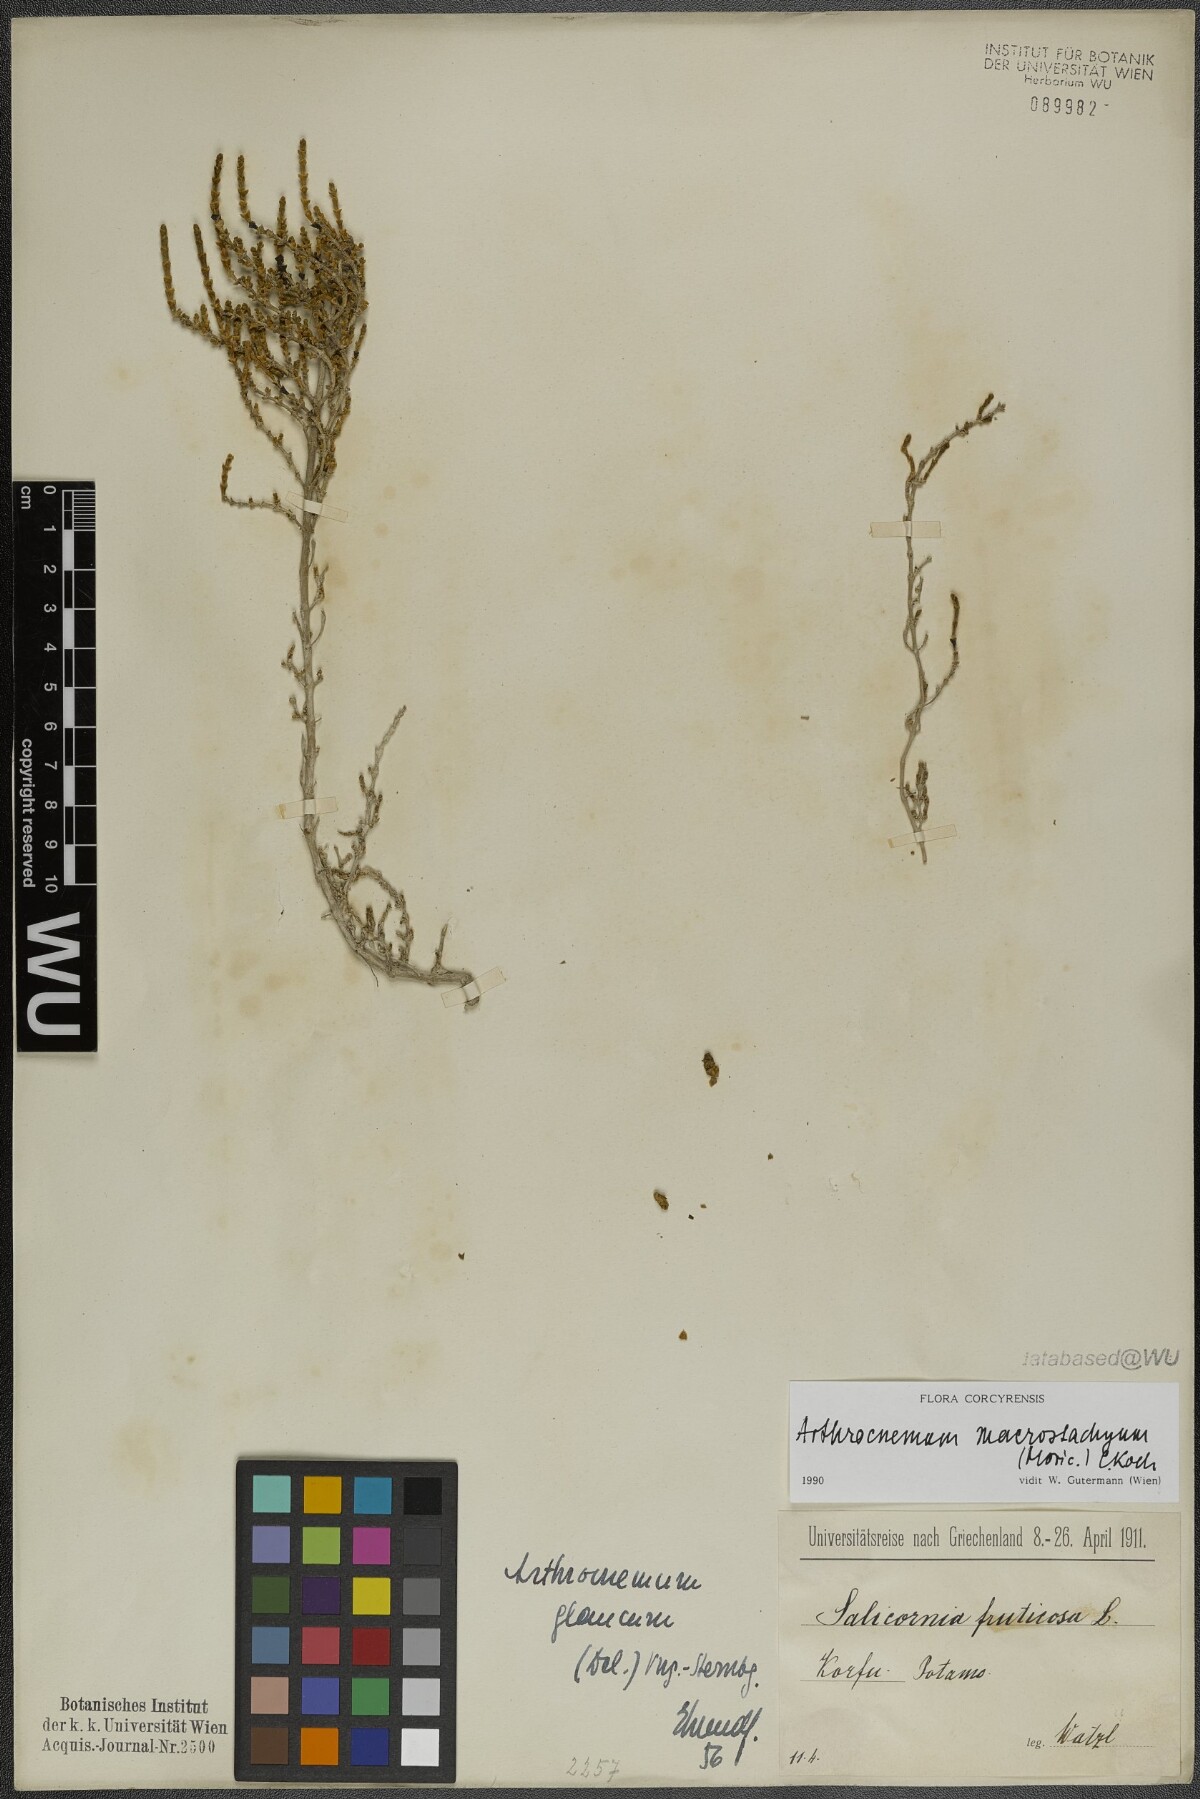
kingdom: Plantae
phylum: Tracheophyta
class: Magnoliopsida
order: Caryophyllales
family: Amaranthaceae
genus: Arthrocaulon
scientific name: Arthrocaulon macrostachyum
